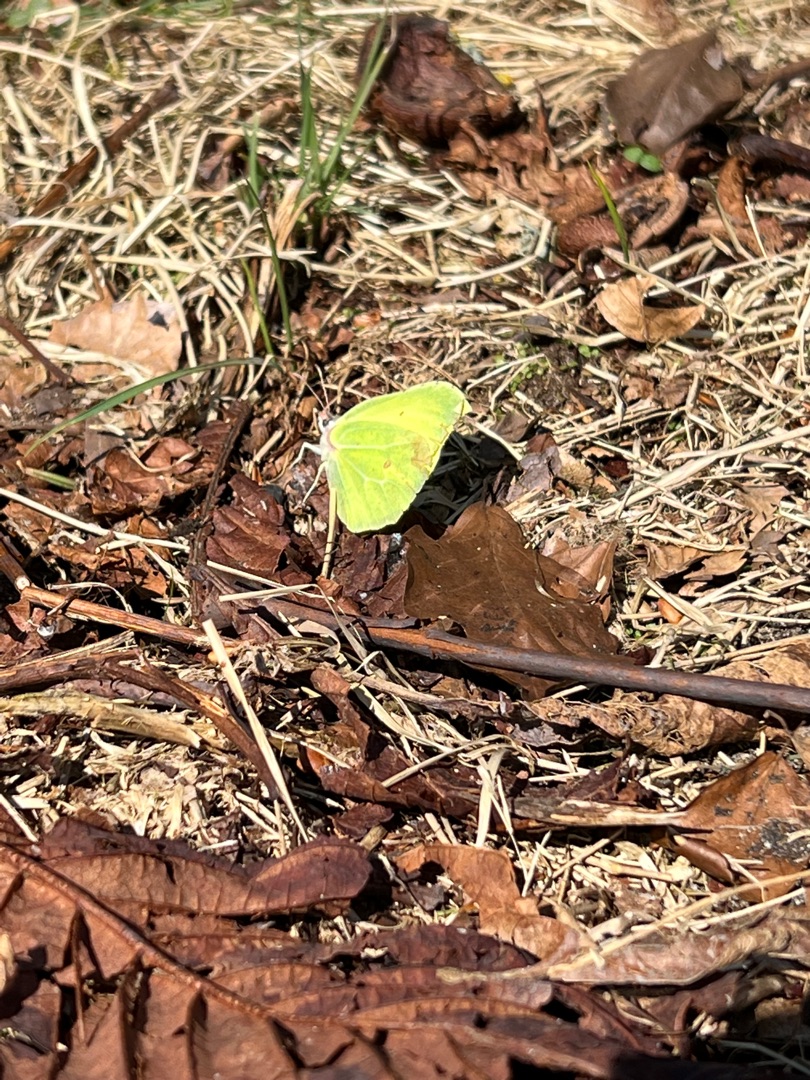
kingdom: Animalia
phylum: Arthropoda
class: Insecta
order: Lepidoptera
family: Pieridae
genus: Gonepteryx
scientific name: Gonepteryx rhamni
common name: Citronsommerfugl
